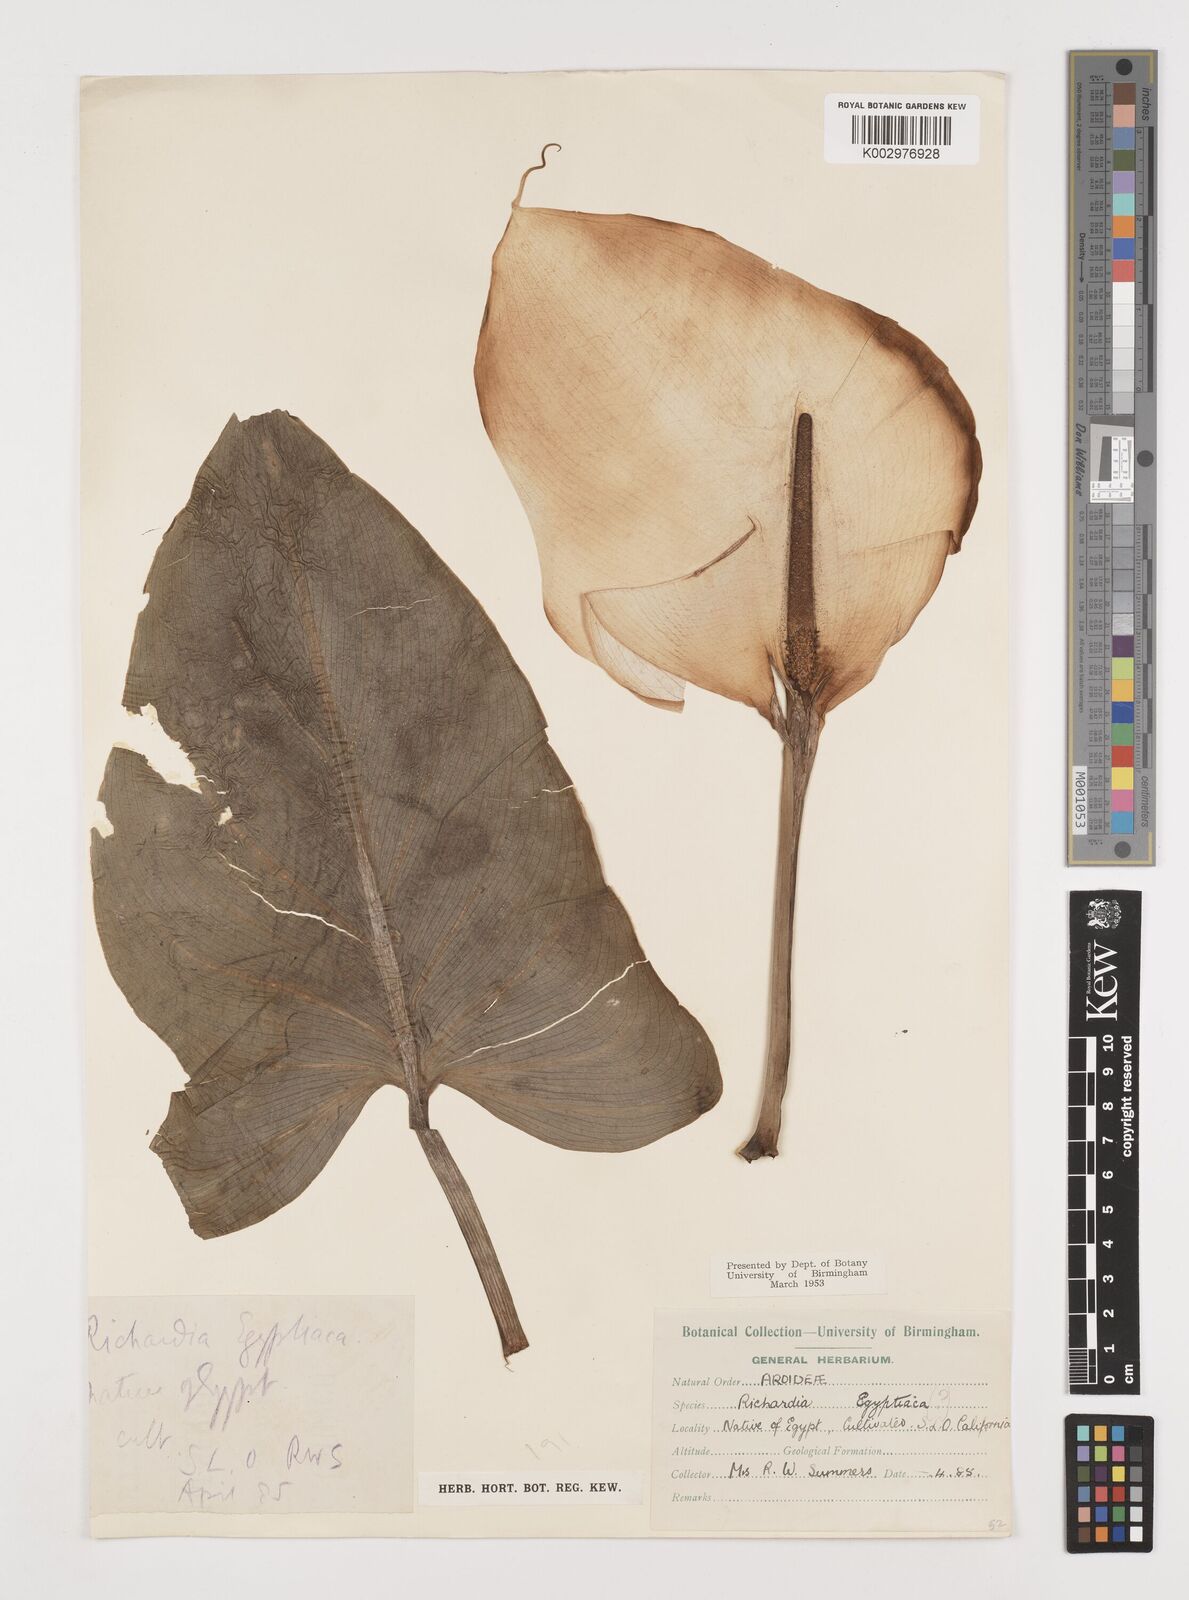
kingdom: Plantae
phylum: Tracheophyta
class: Liliopsida
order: Alismatales
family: Araceae
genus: Zantedeschia
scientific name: Zantedeschia aethiopica
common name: Altar-lily
